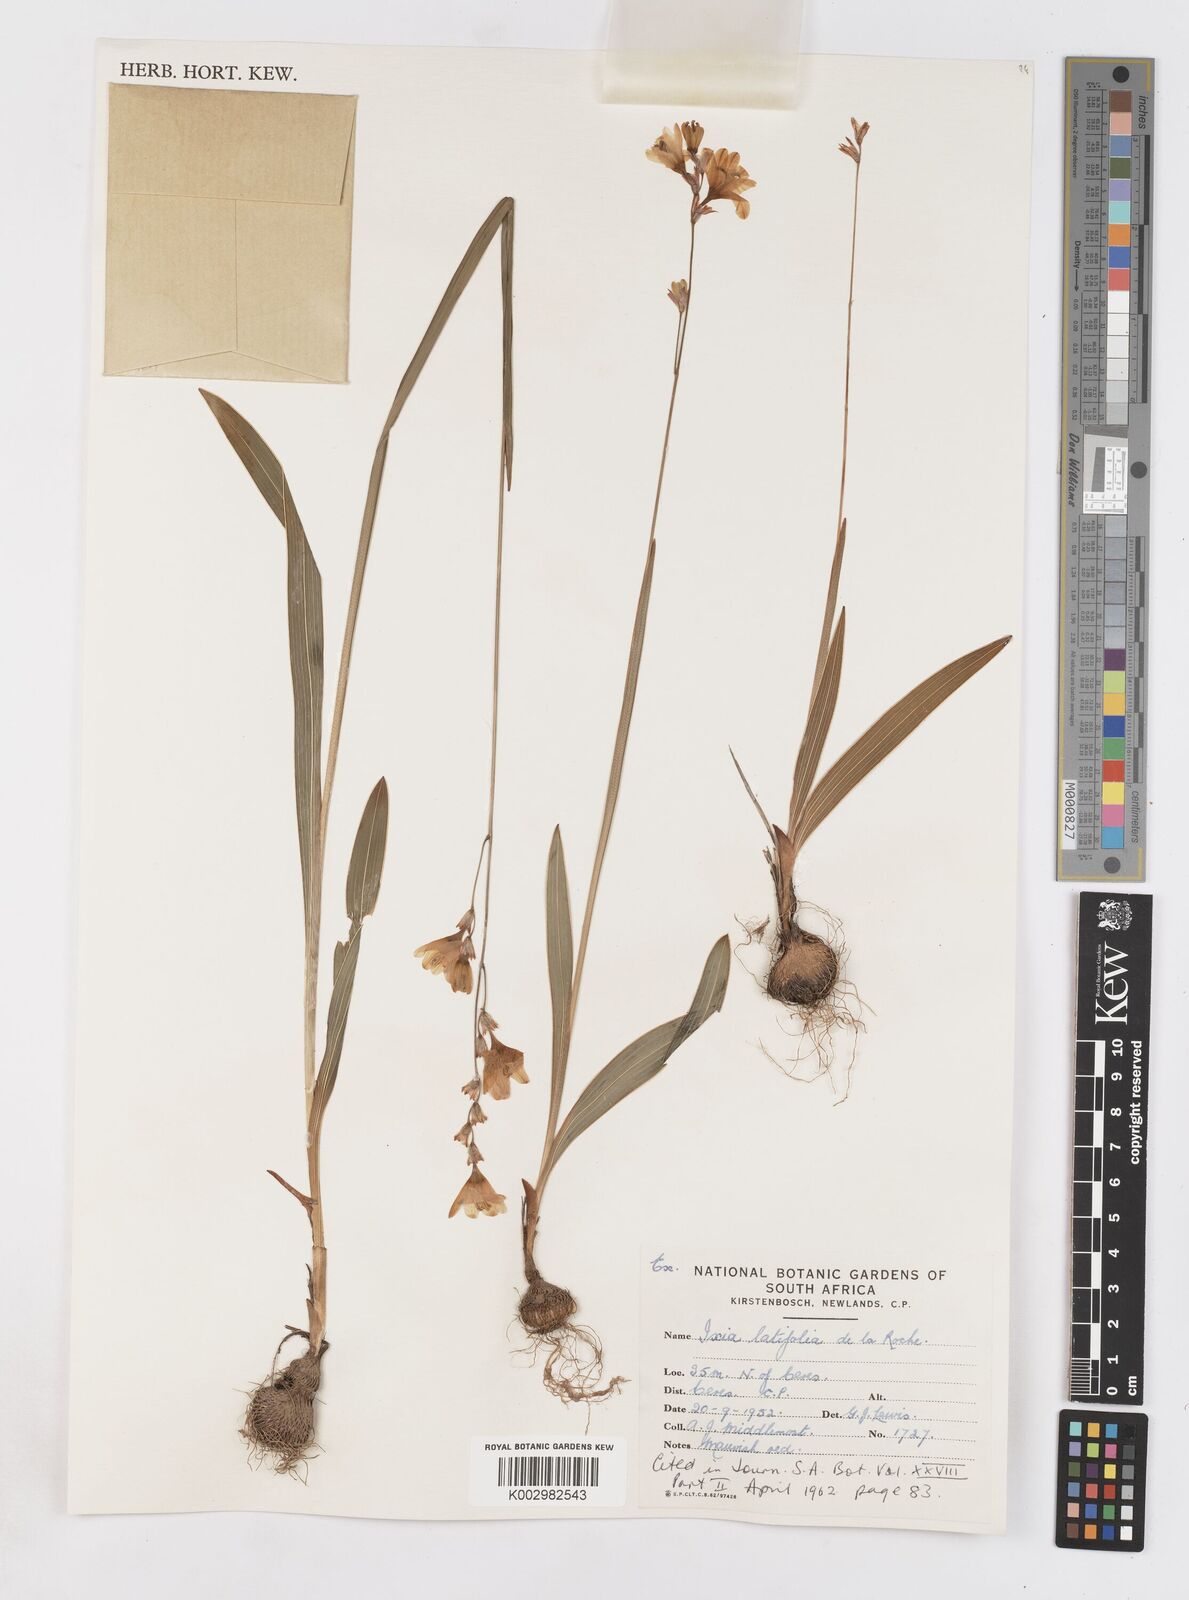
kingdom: Plantae
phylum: Tracheophyta
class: Liliopsida
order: Asparagales
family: Iridaceae
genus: Ixia
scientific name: Ixia latifolia
